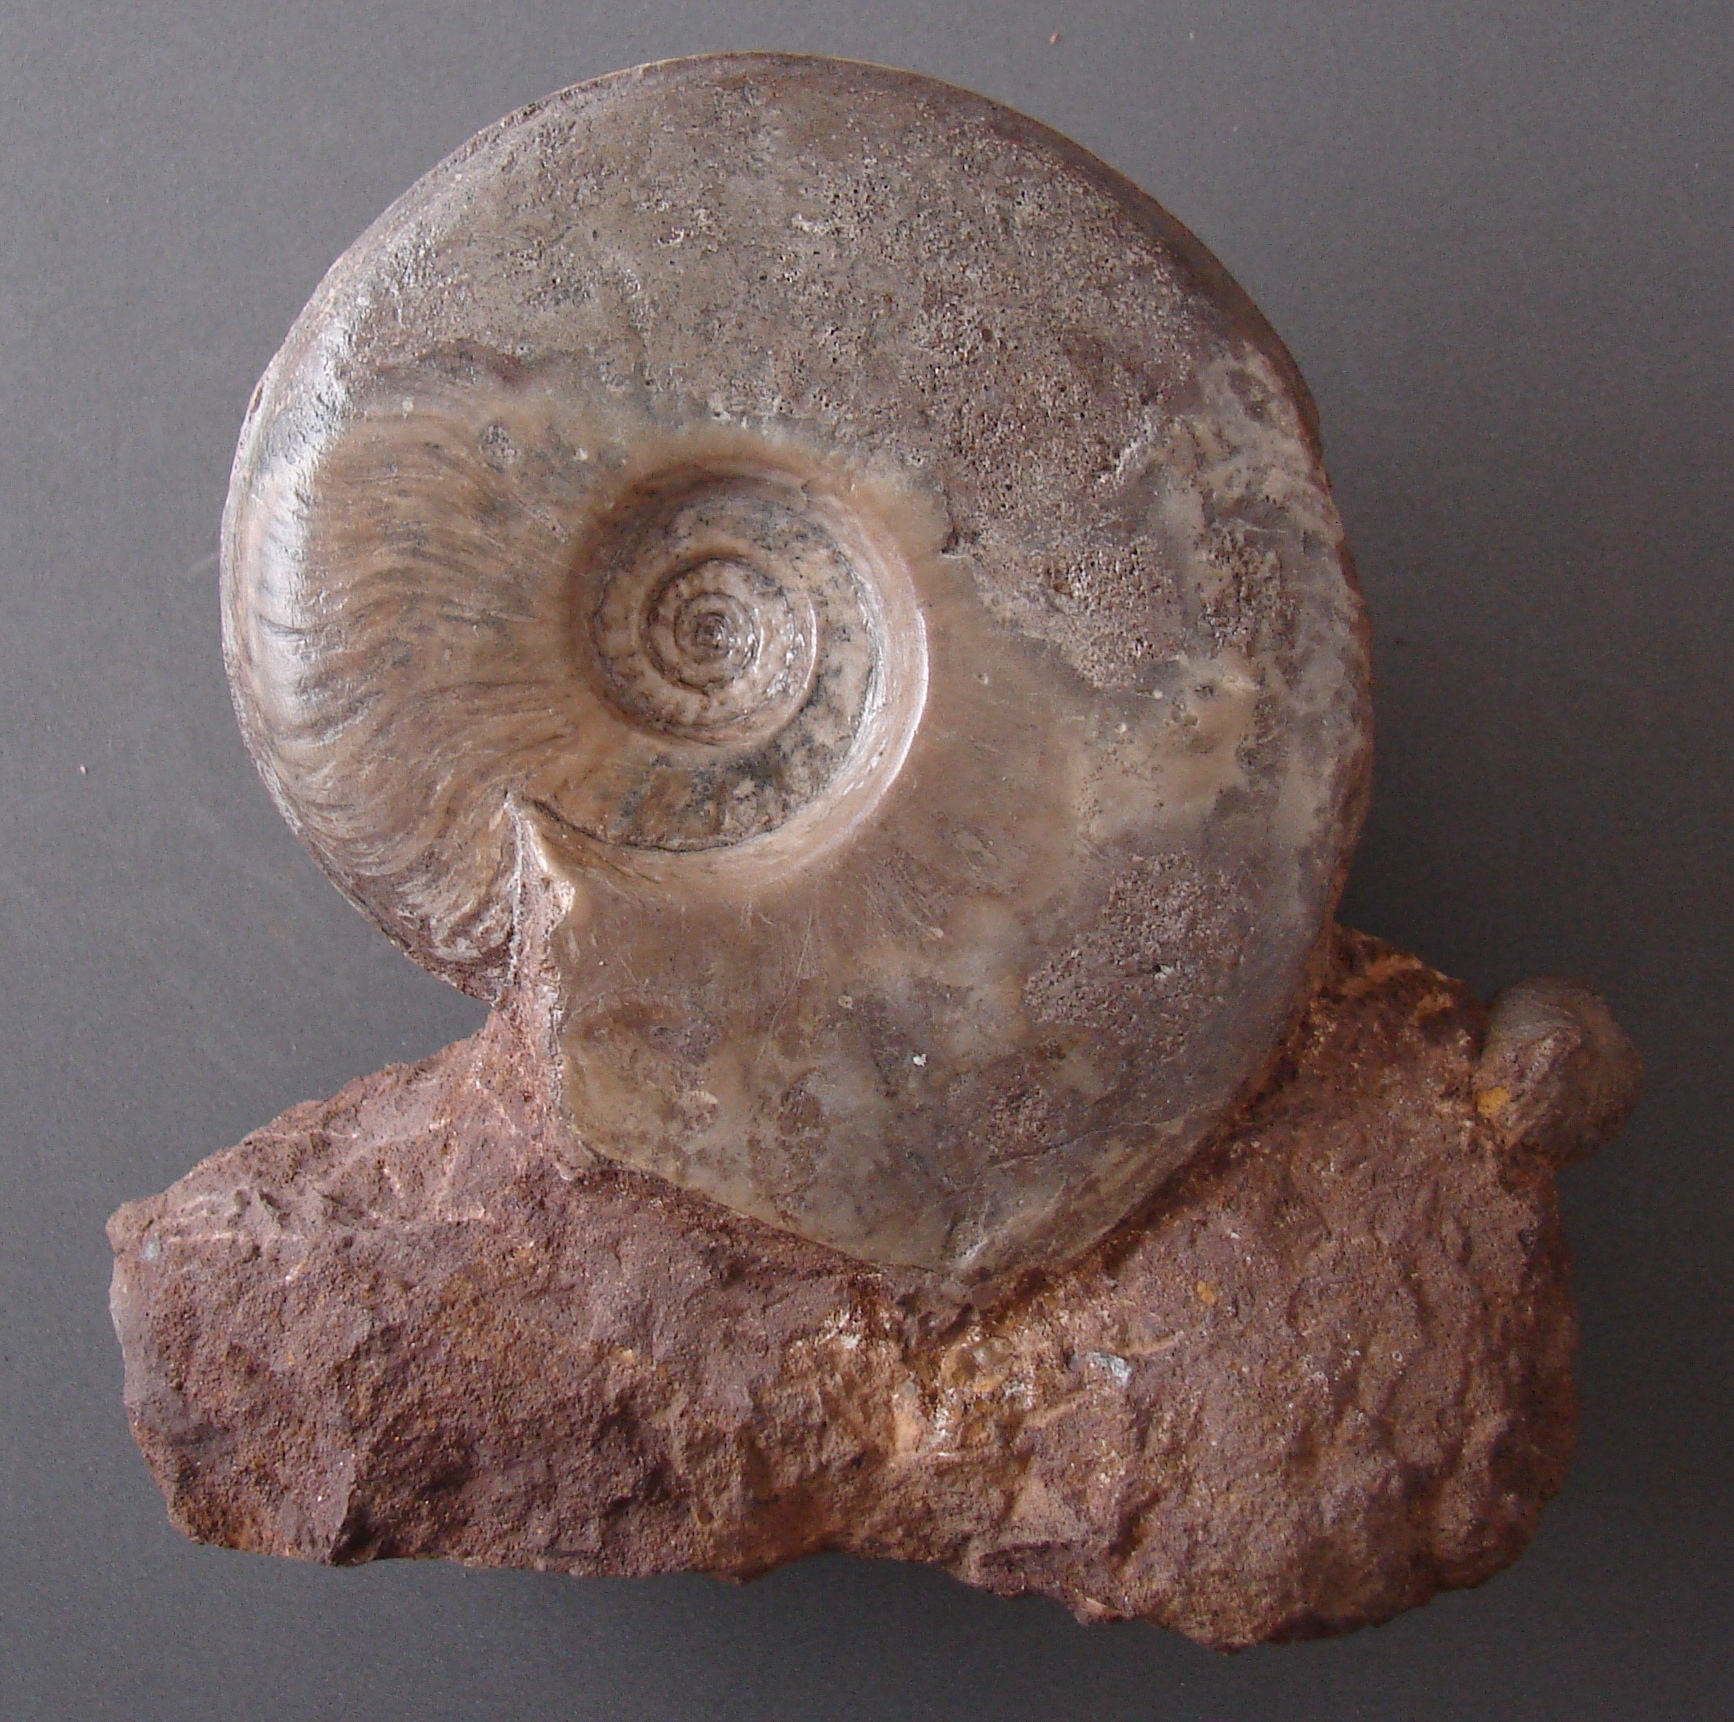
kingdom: Animalia
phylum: Mollusca
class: Cephalopoda
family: Graphoceratidae
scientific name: Graphoceratidae
